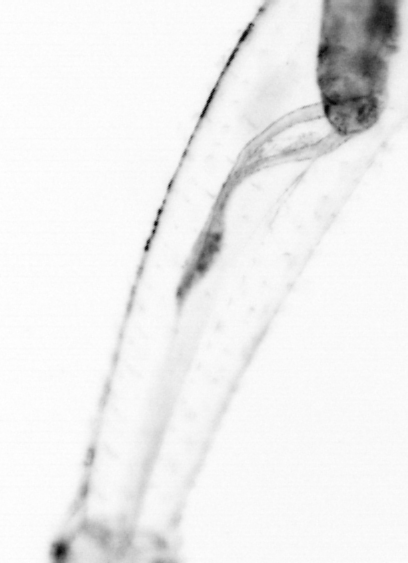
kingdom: Animalia
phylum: Chaetognatha
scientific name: Chaetognatha
